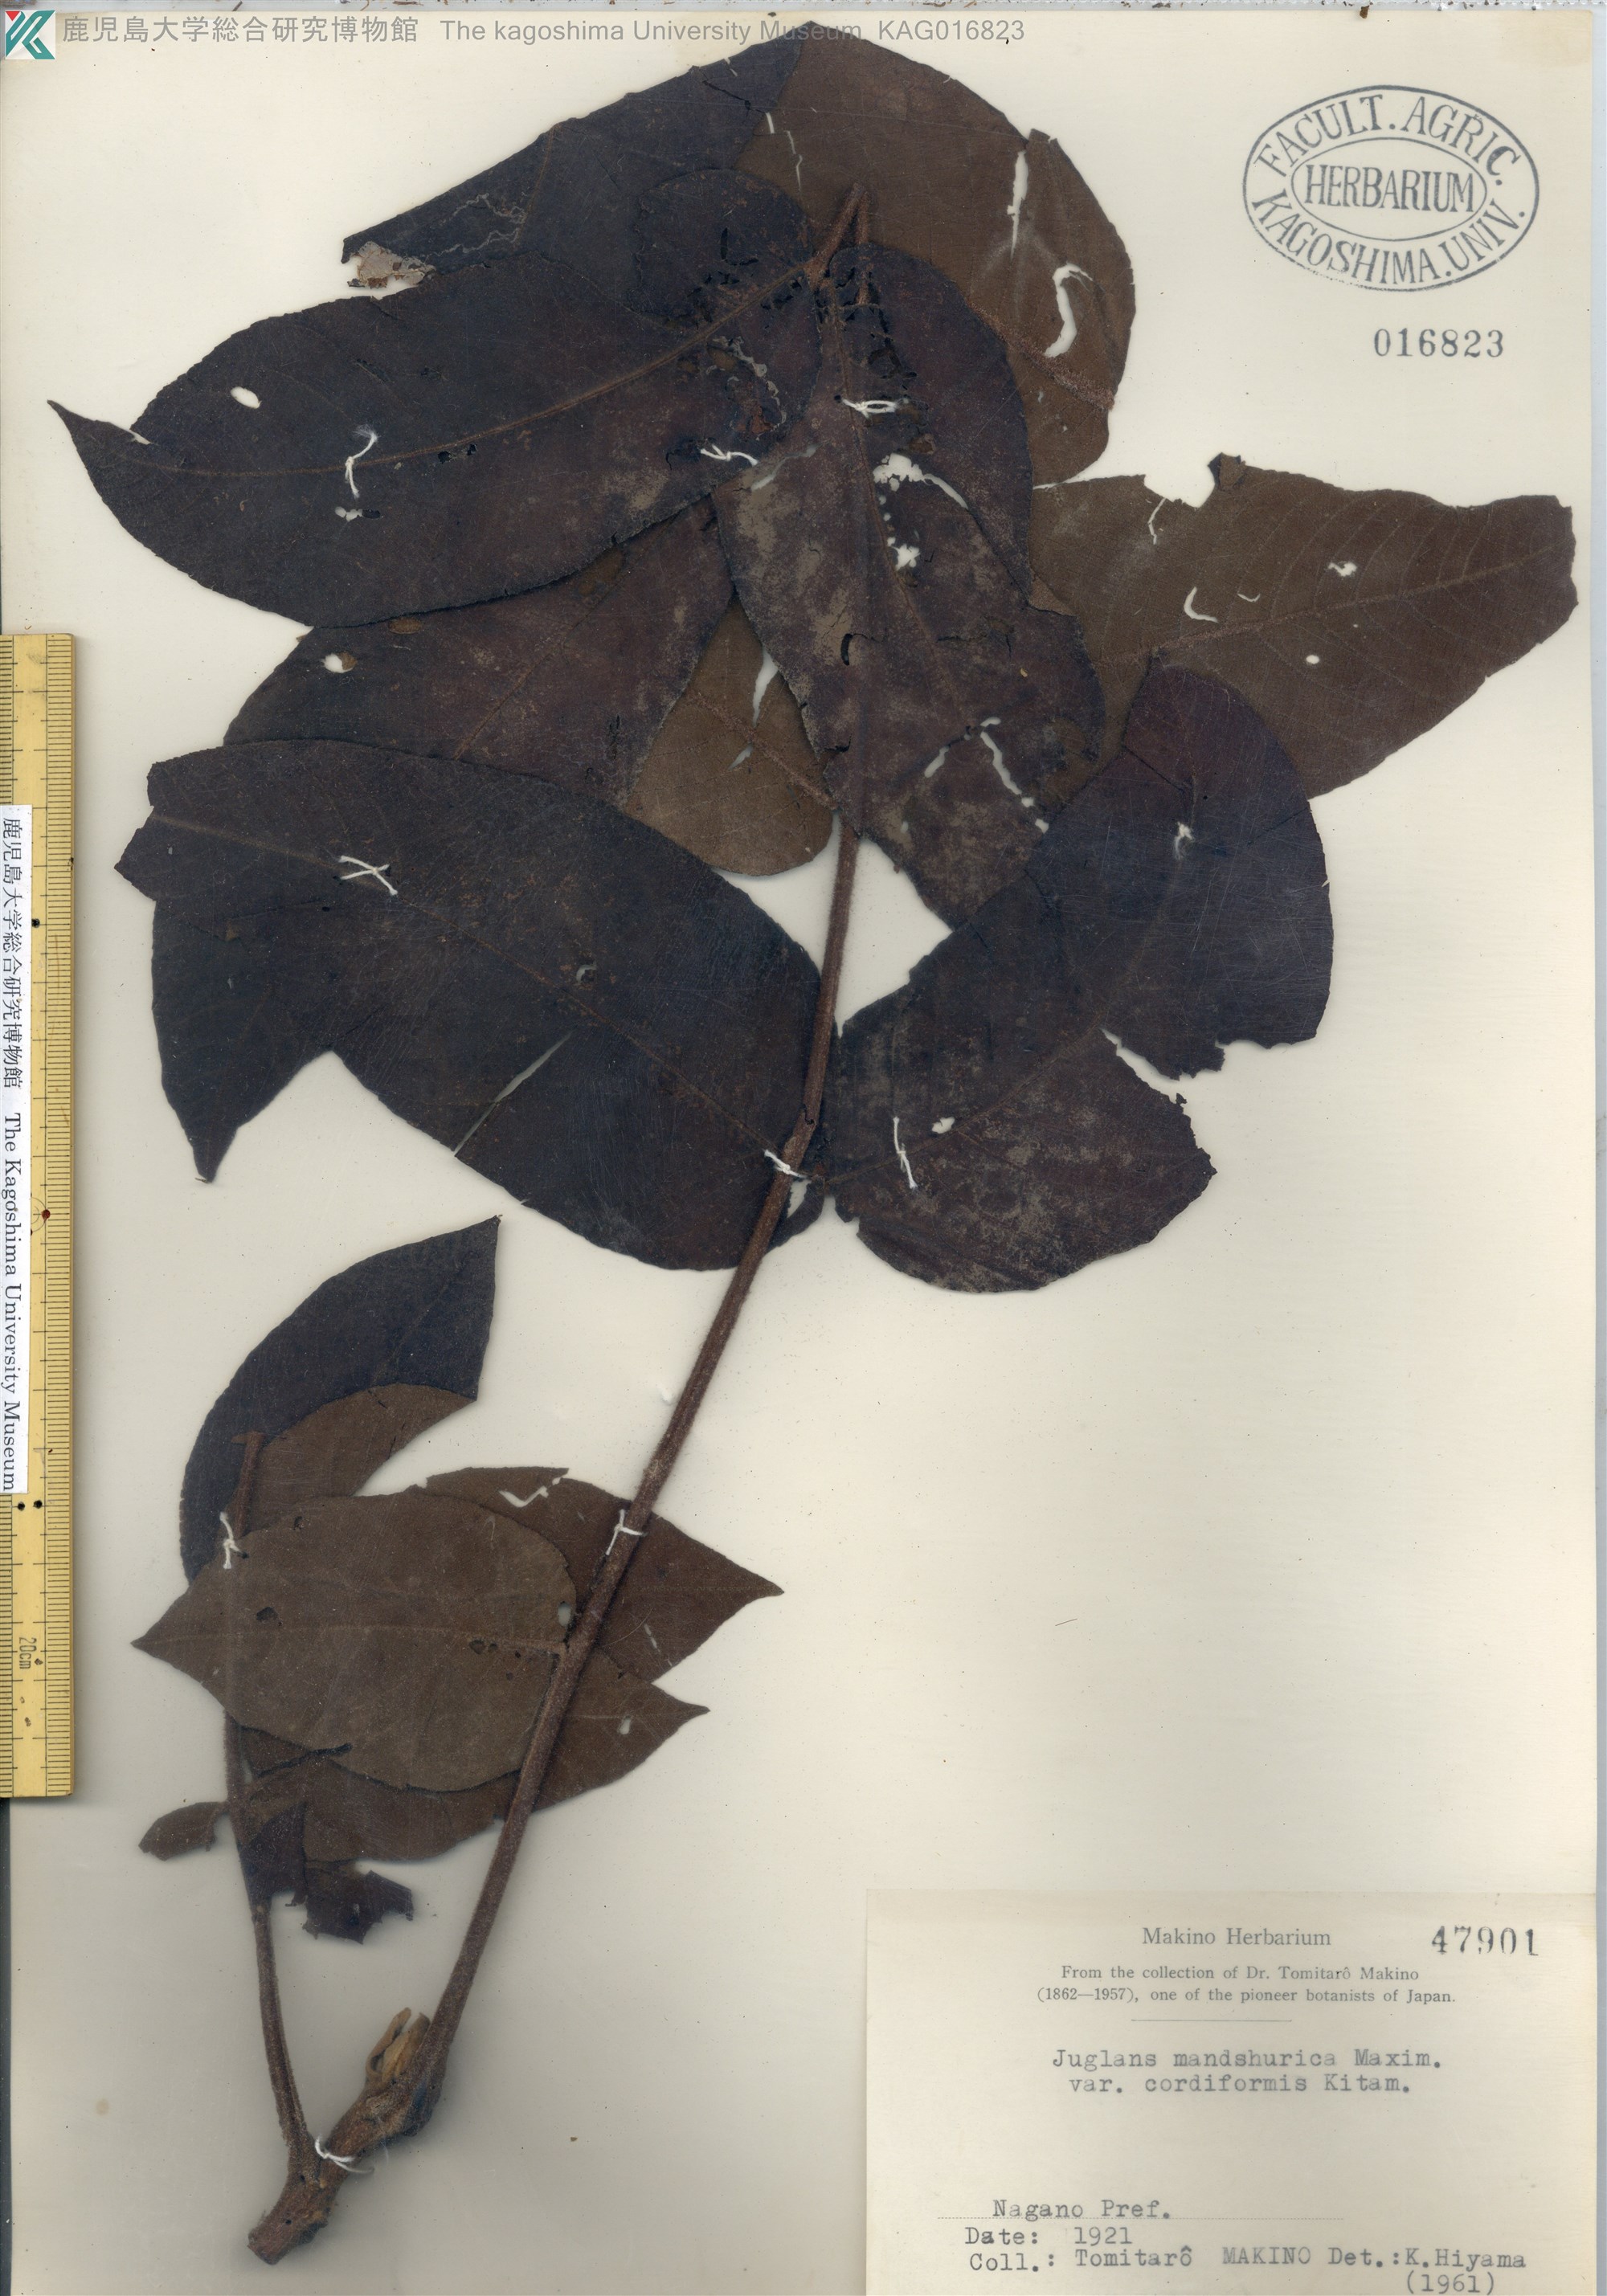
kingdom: Plantae
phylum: Tracheophyta
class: Magnoliopsida
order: Fagales
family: Juglandaceae
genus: Juglans
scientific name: Juglans ailantifolia
